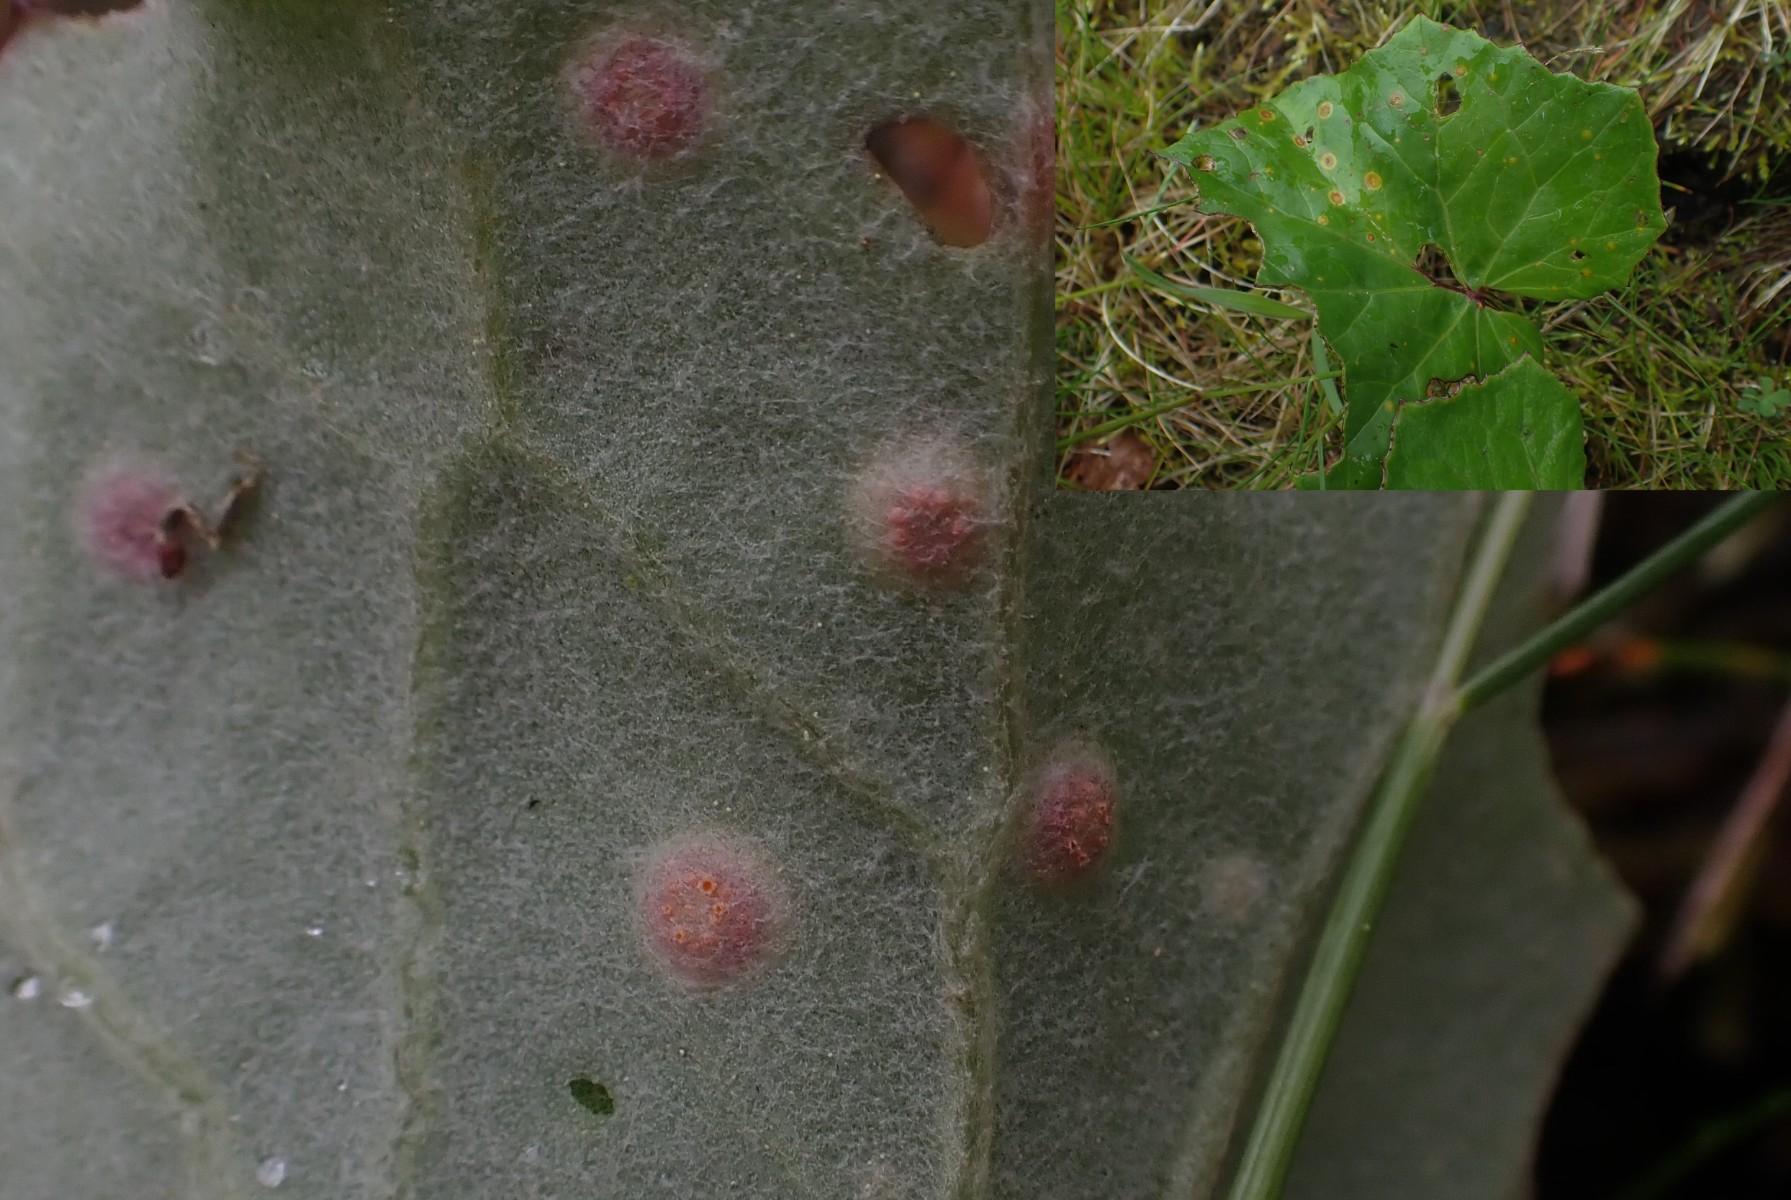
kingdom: Fungi
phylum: Basidiomycota
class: Pucciniomycetes
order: Pucciniales
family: Pucciniaceae
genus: Puccinia
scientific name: Puccinia poarum
